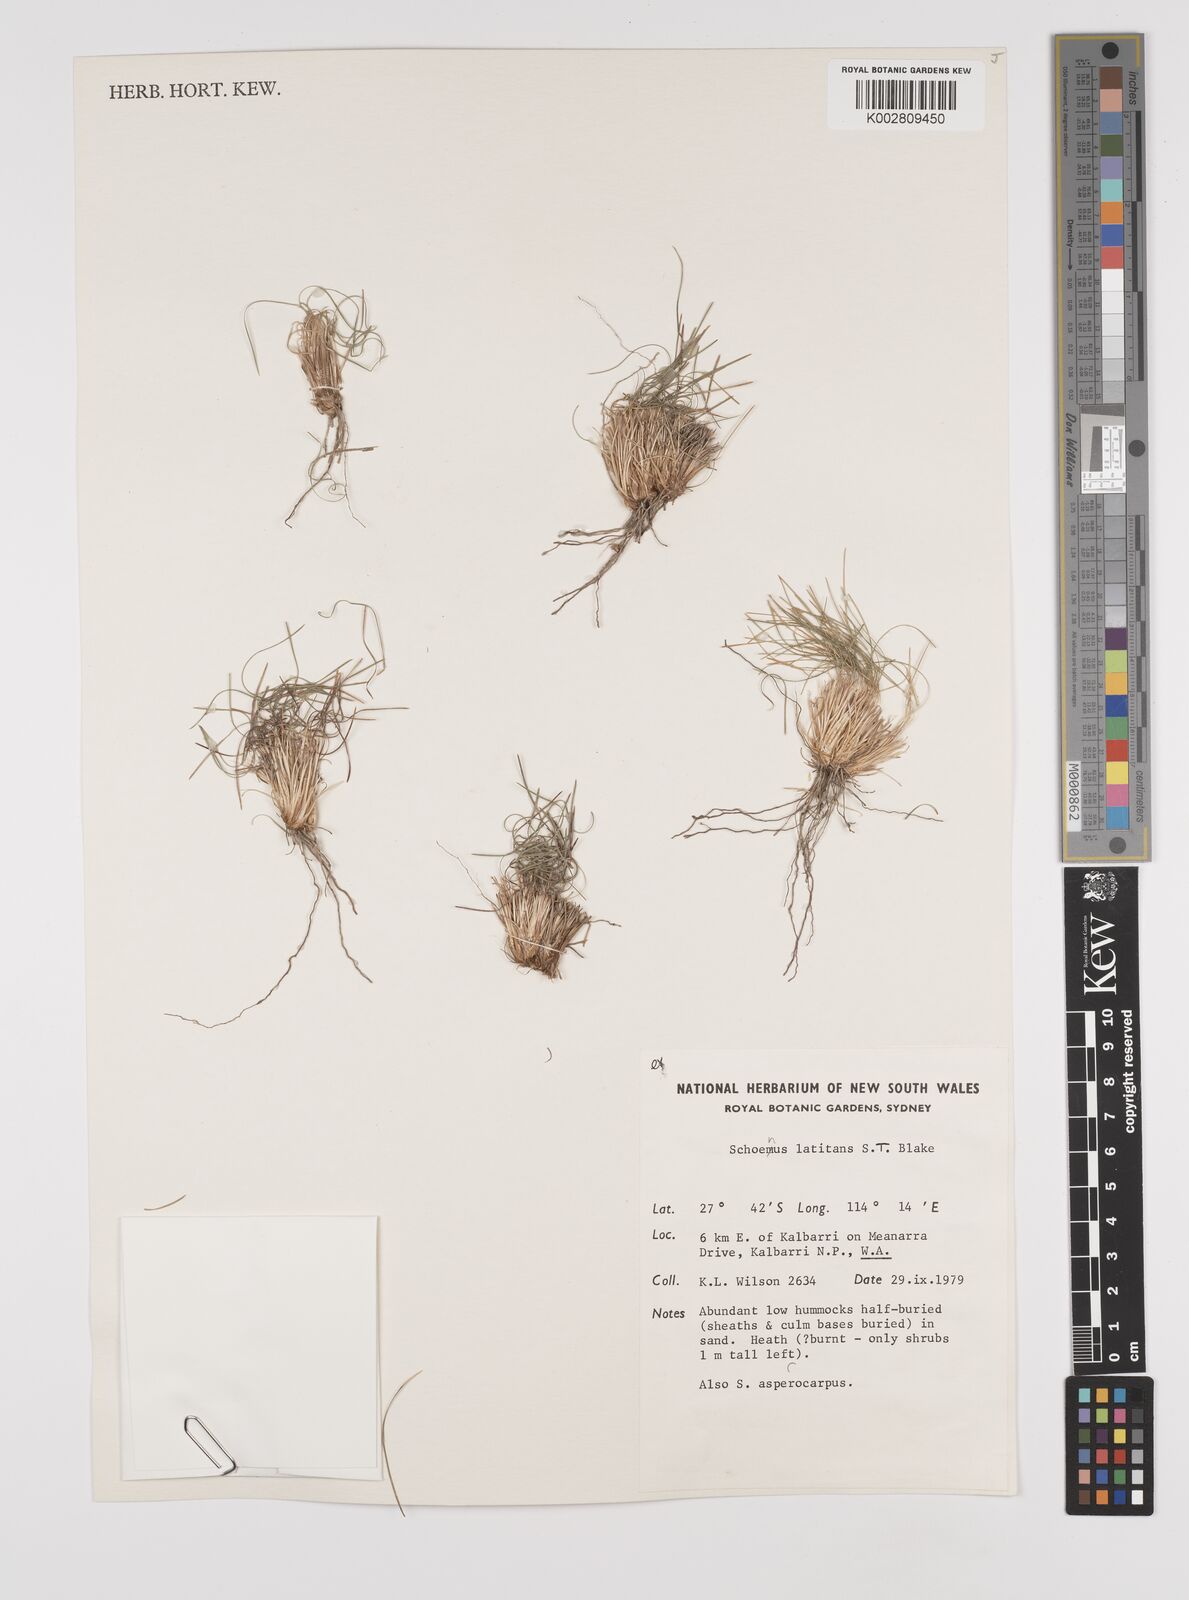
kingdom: Plantae
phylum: Tracheophyta
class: Liliopsida
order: Poales
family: Cyperaceae
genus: Schoenus
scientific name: Schoenus latitans
